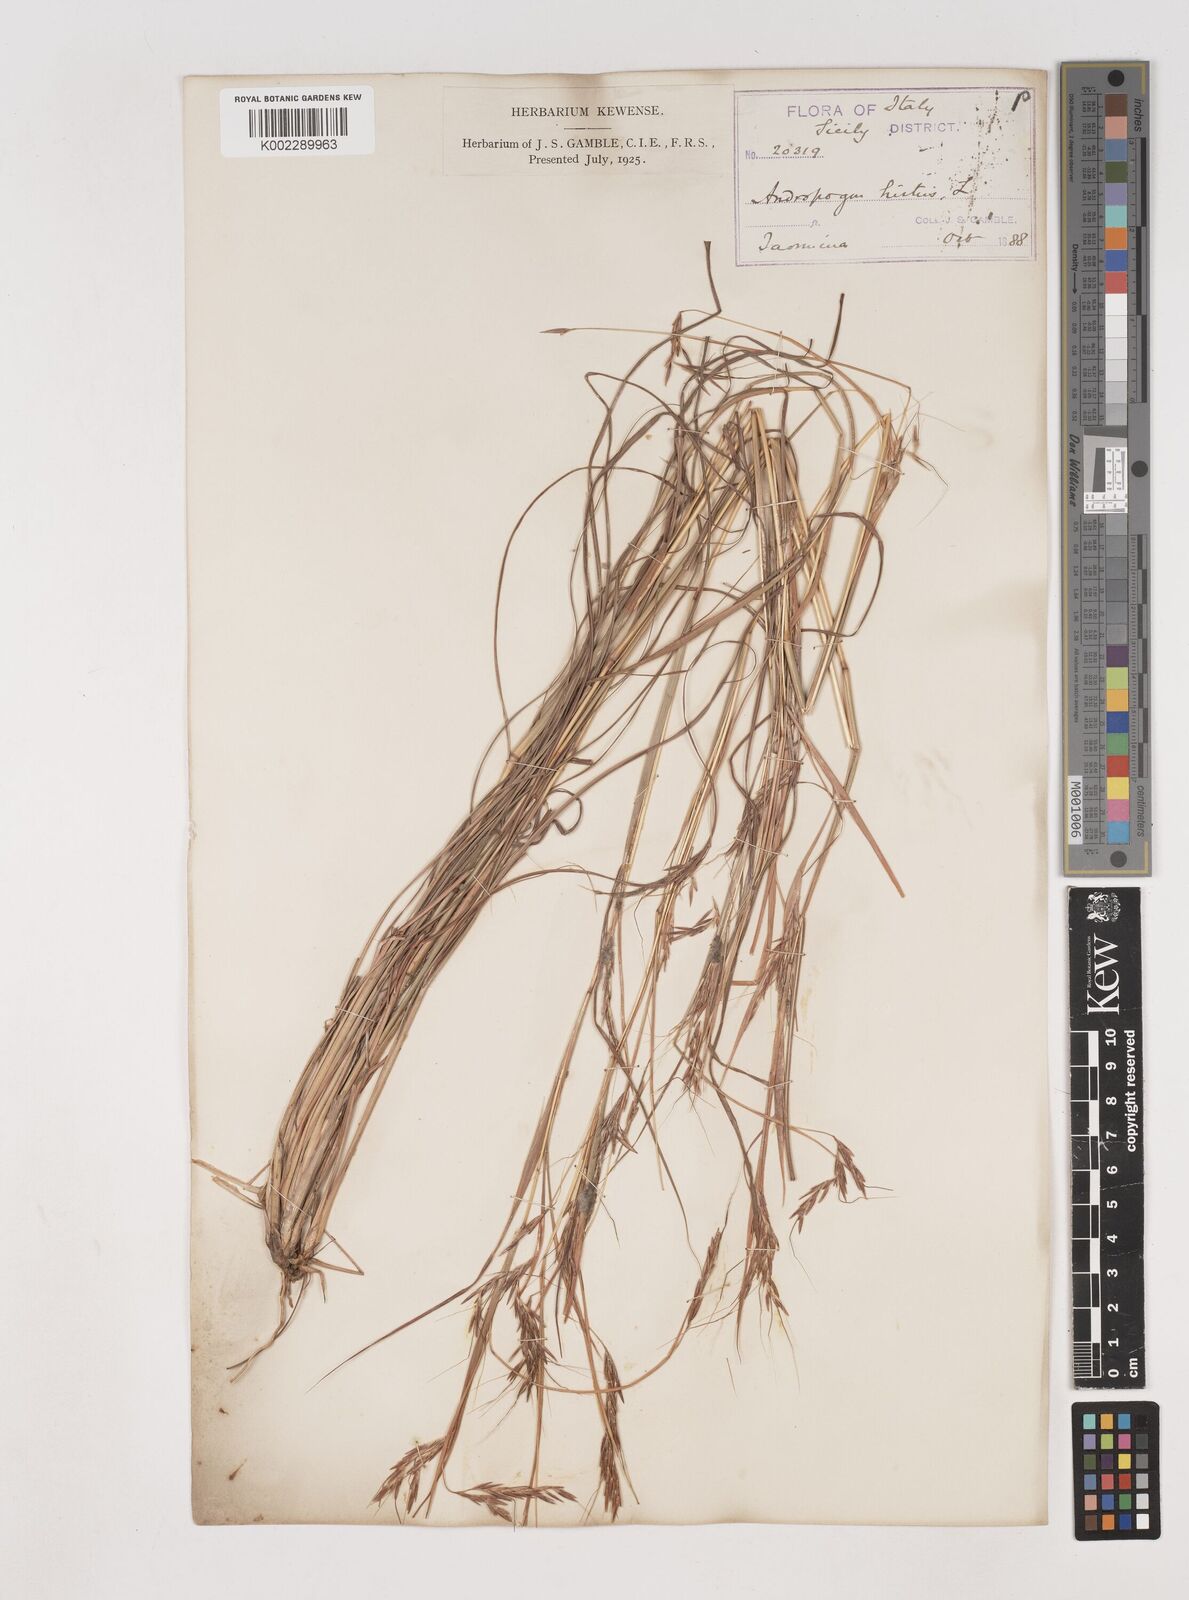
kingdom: Plantae
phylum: Tracheophyta
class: Liliopsida
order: Poales
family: Poaceae
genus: Hyparrhenia
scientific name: Hyparrhenia hirta
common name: Thatching grass
